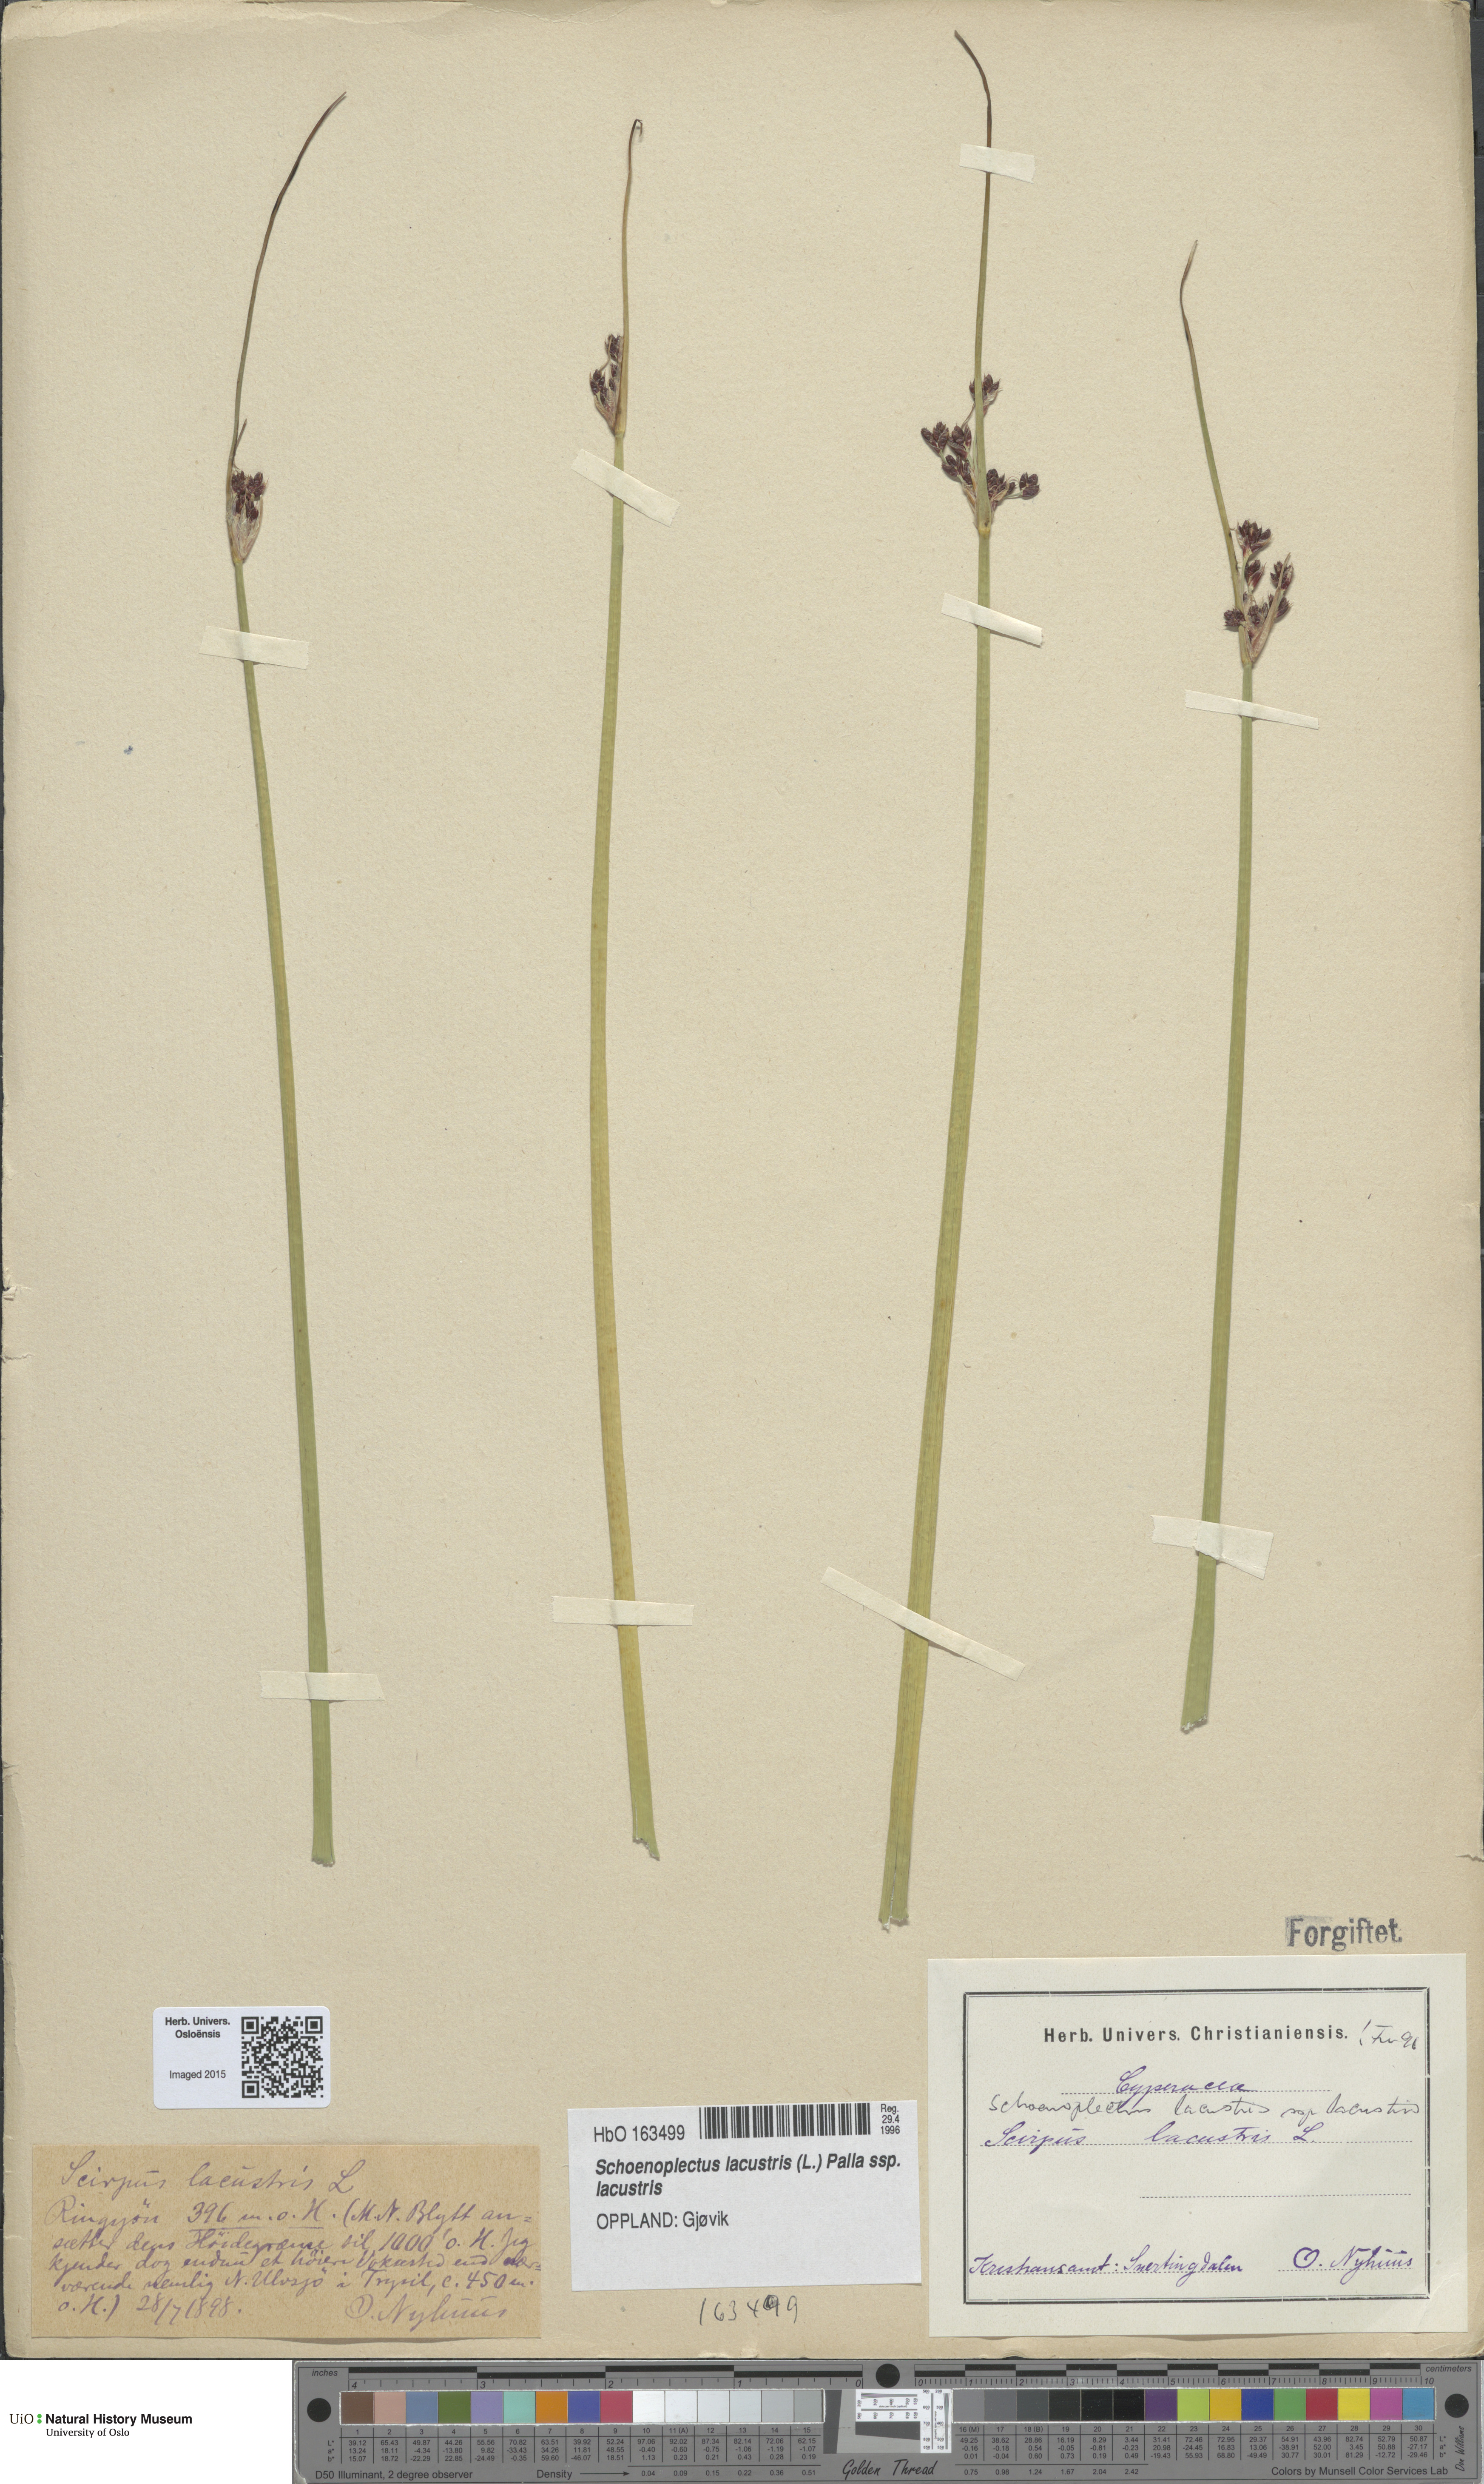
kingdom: Plantae
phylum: Tracheophyta
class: Liliopsida
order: Poales
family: Cyperaceae
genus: Schoenoplectus
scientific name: Schoenoplectus lacustris
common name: Common club-rush
